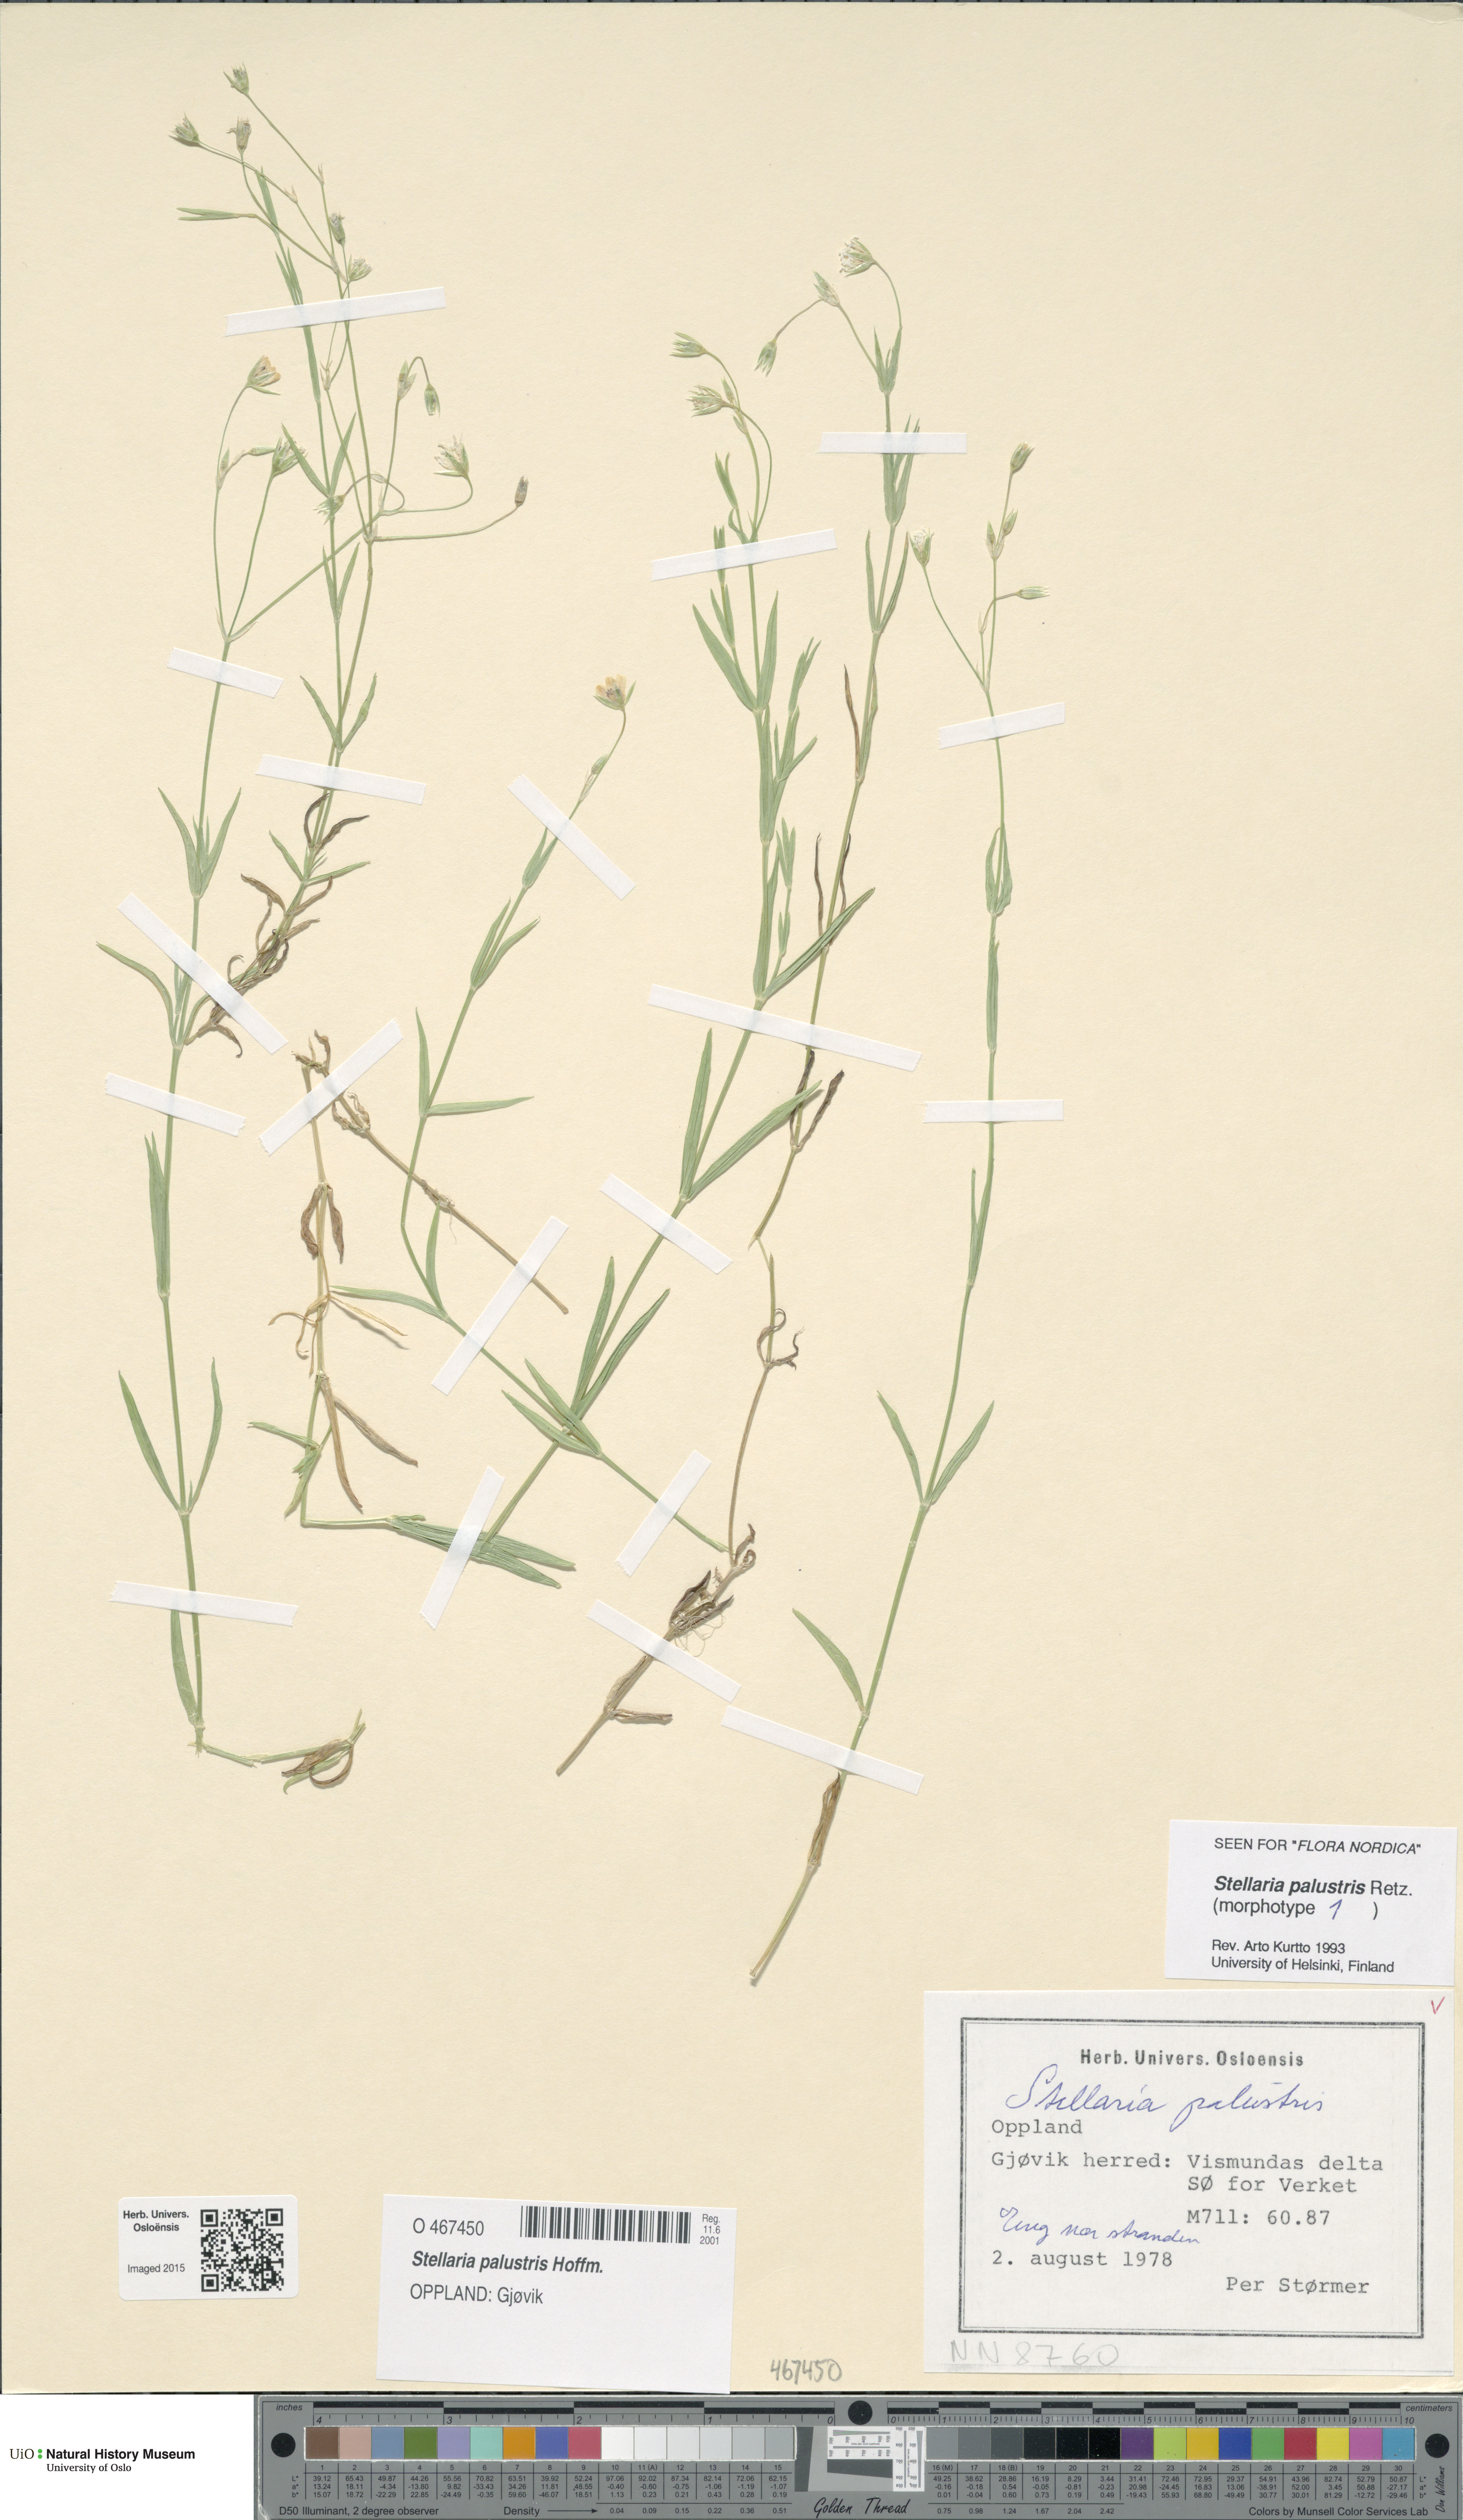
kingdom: Plantae
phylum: Tracheophyta
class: Magnoliopsida
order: Caryophyllales
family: Caryophyllaceae
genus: Stellaria
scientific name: Stellaria palustris
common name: Marsh stitchwort
